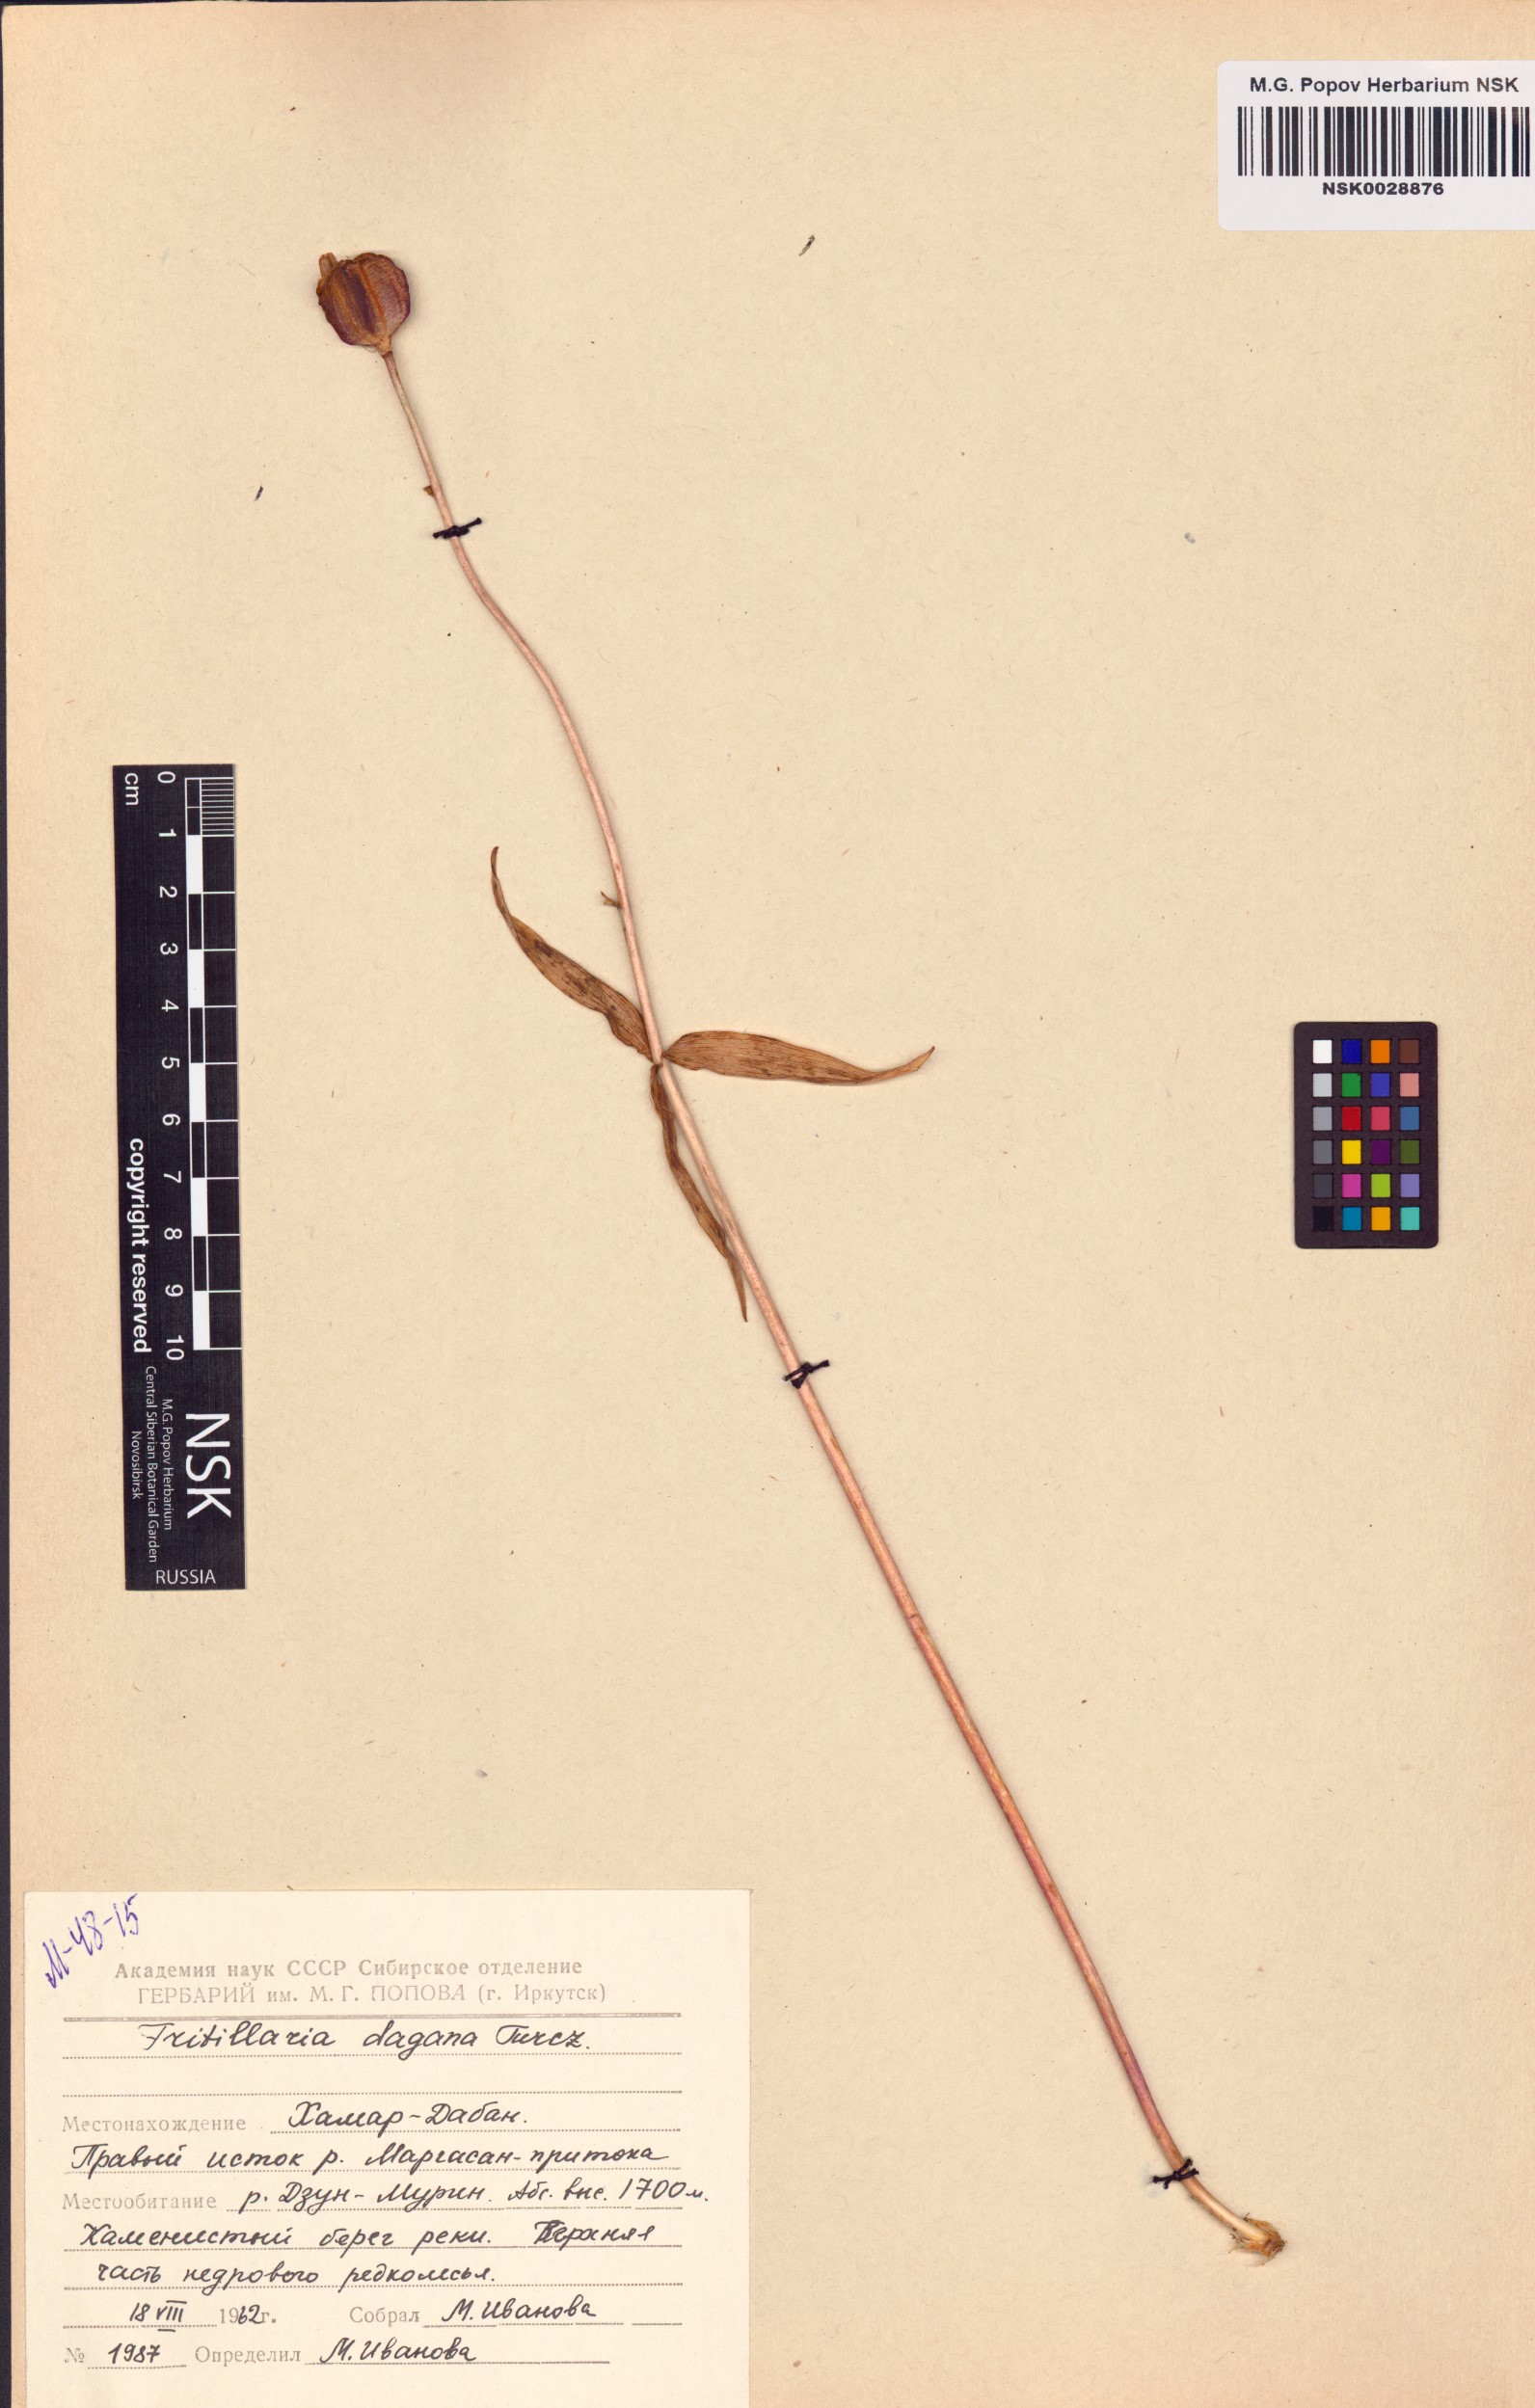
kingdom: Plantae
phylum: Tracheophyta
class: Liliopsida
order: Liliales
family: Liliaceae
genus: Fritillaria
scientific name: Fritillaria dagana
